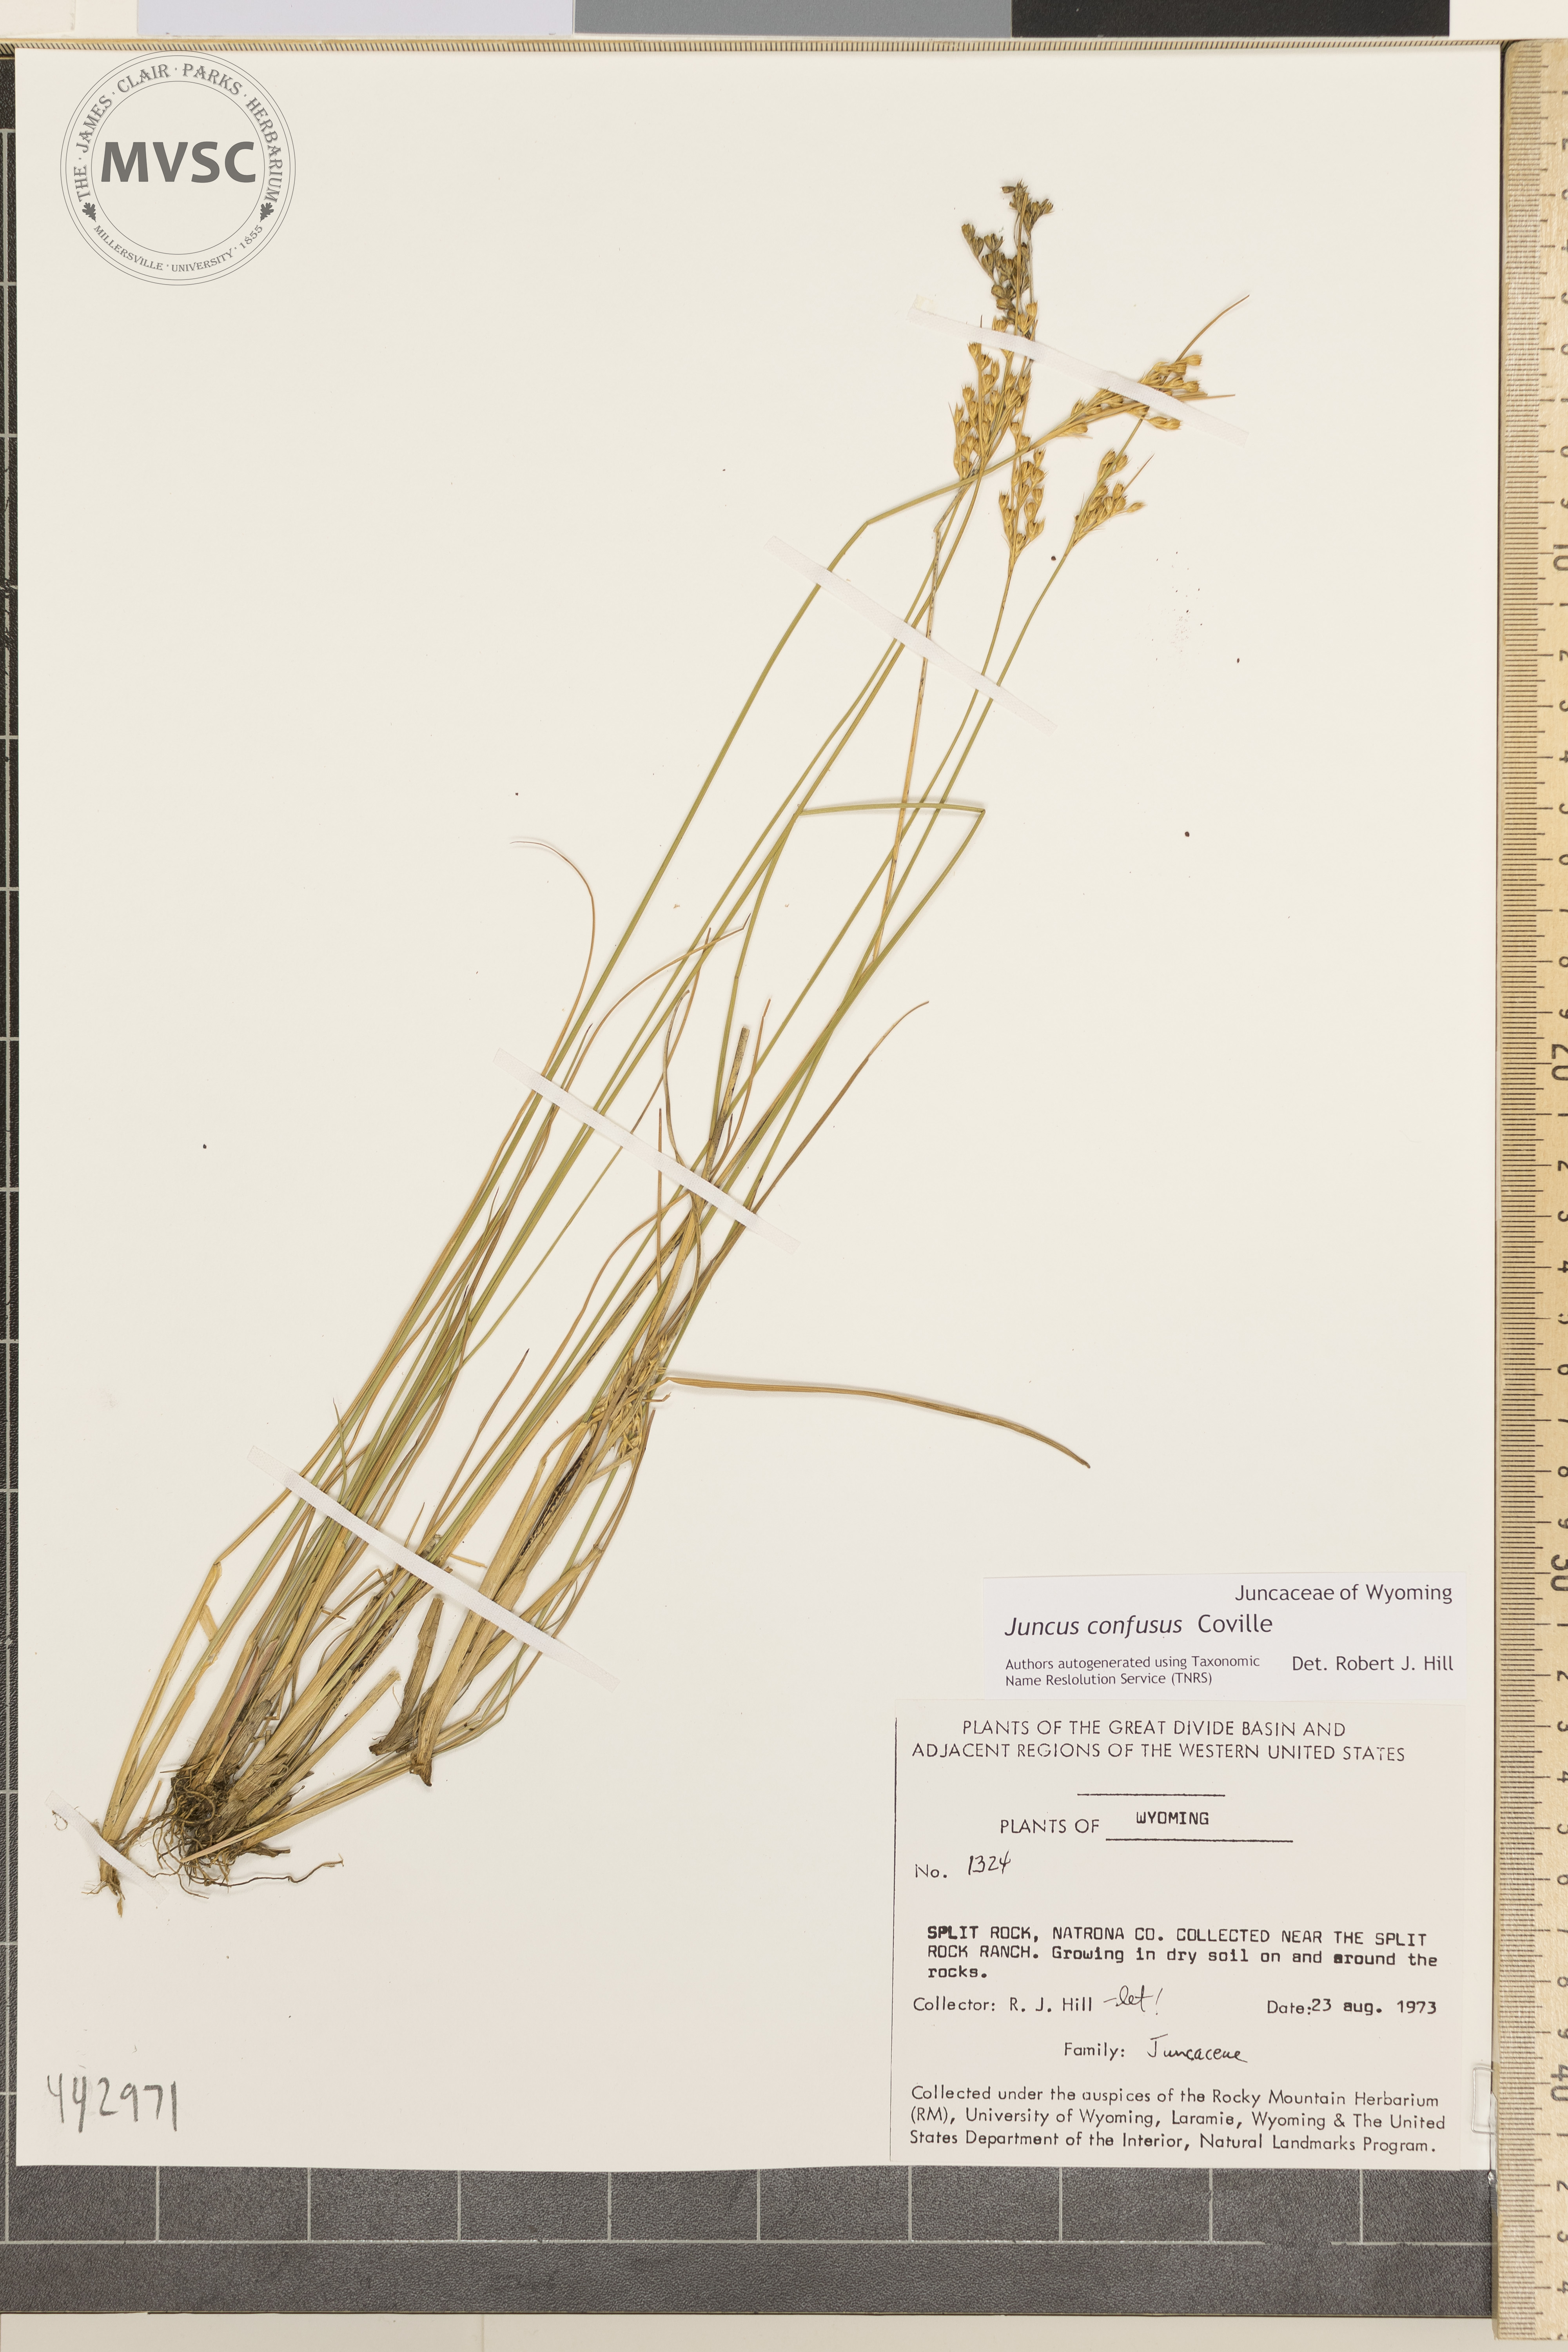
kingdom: Plantae
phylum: Tracheophyta
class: Liliopsida
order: Poales
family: Juncaceae
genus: Juncus
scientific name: Juncus confusus
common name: Colorado rush
